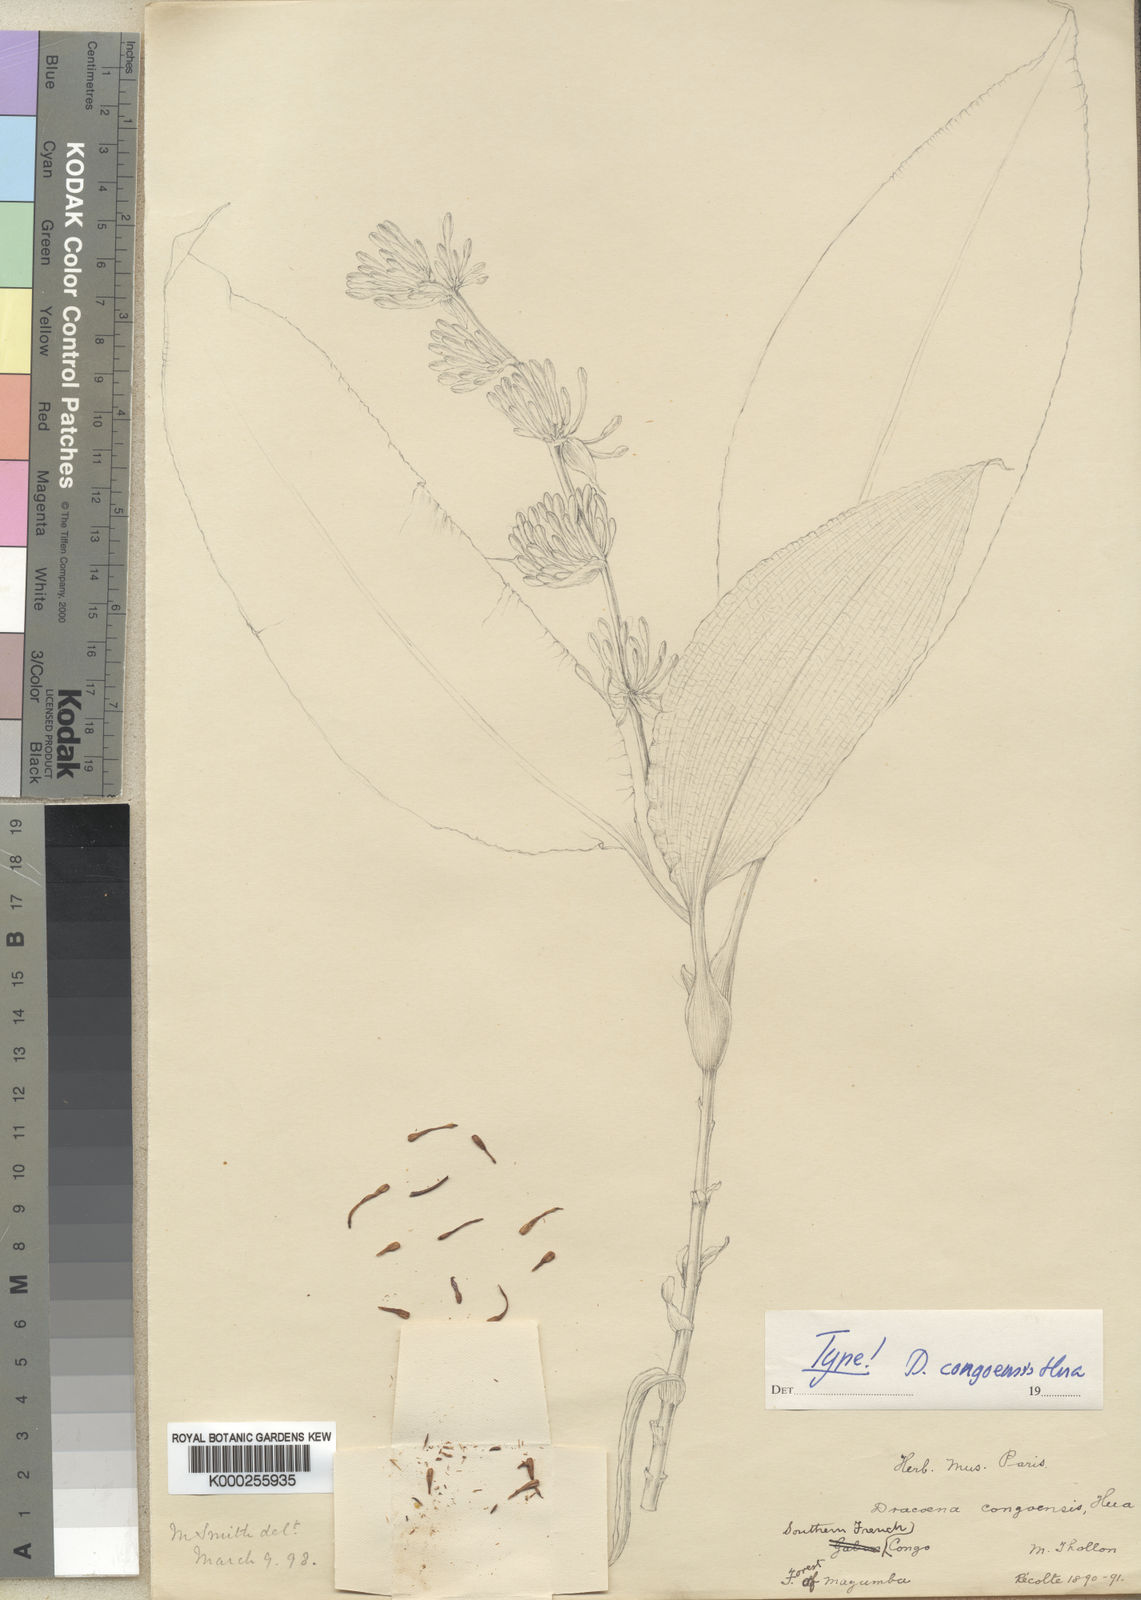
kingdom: Plantae
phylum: Tracheophyta
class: Liliopsida
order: Asparagales
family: Asparagaceae
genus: Dracaena
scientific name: Dracaena congoensis
